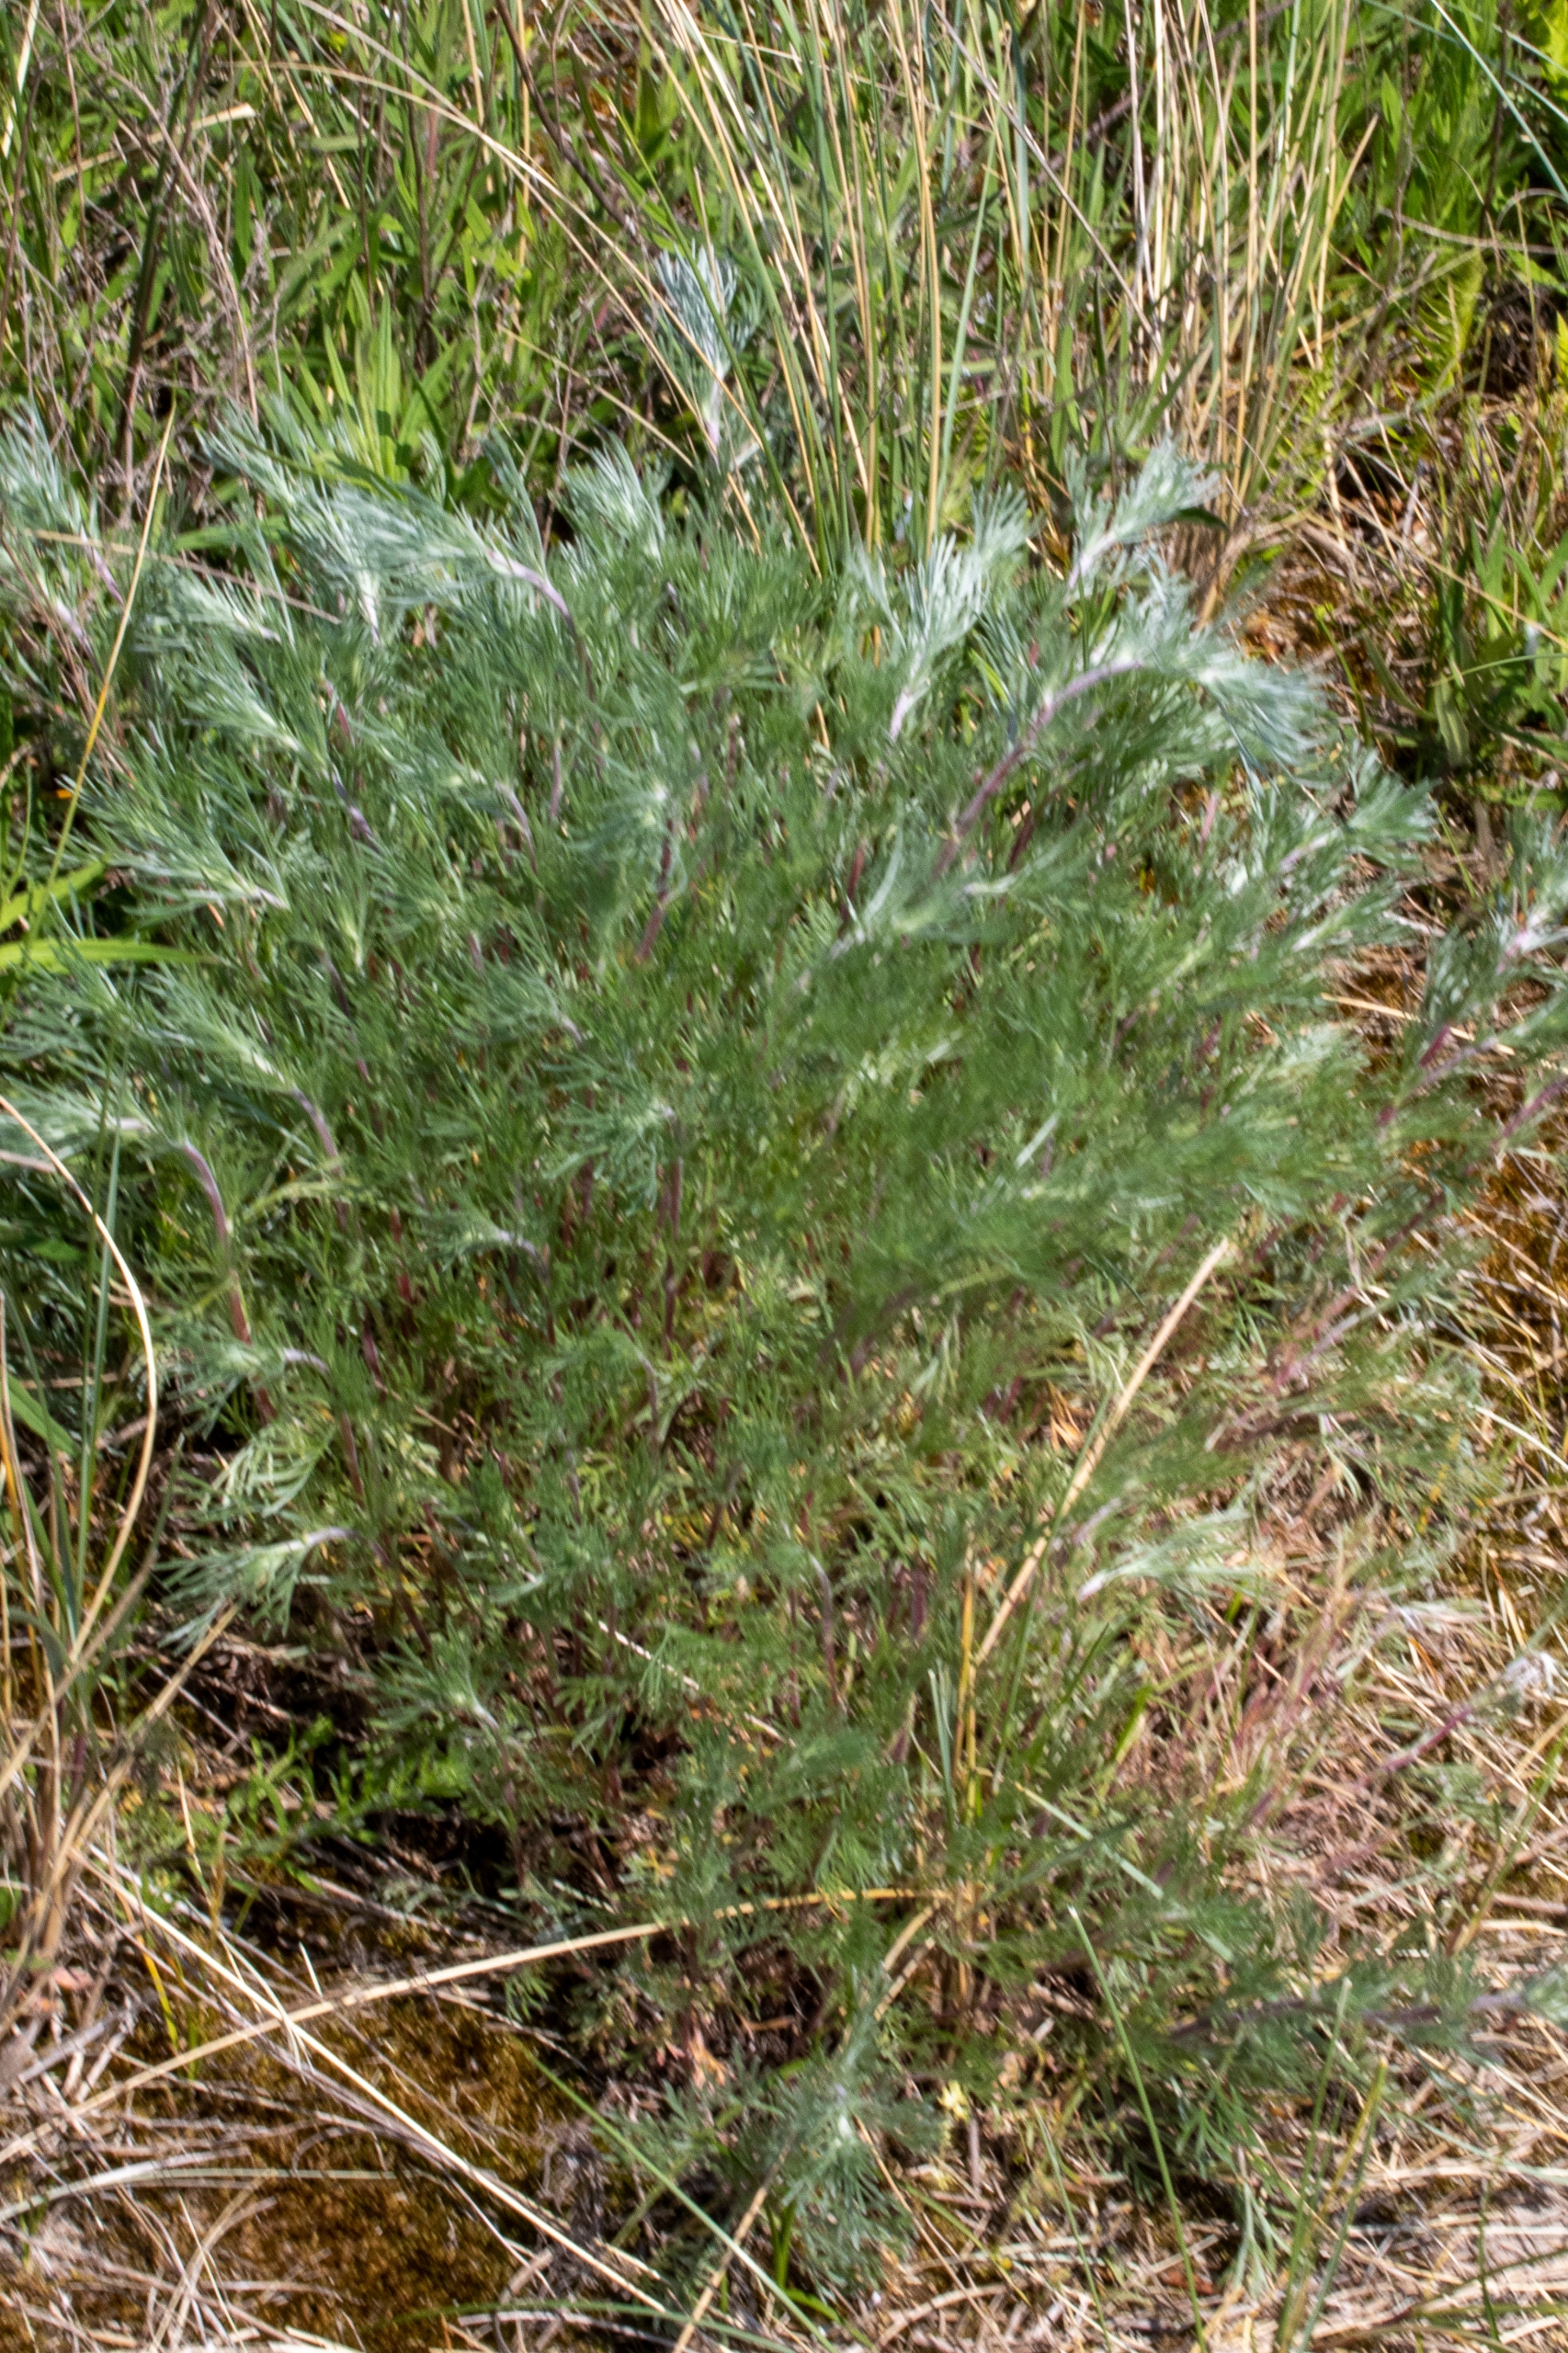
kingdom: Plantae
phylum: Tracheophyta
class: Magnoliopsida
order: Asterales
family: Asteraceae
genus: Artemisia
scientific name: Artemisia campestris
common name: Mark-bynke
